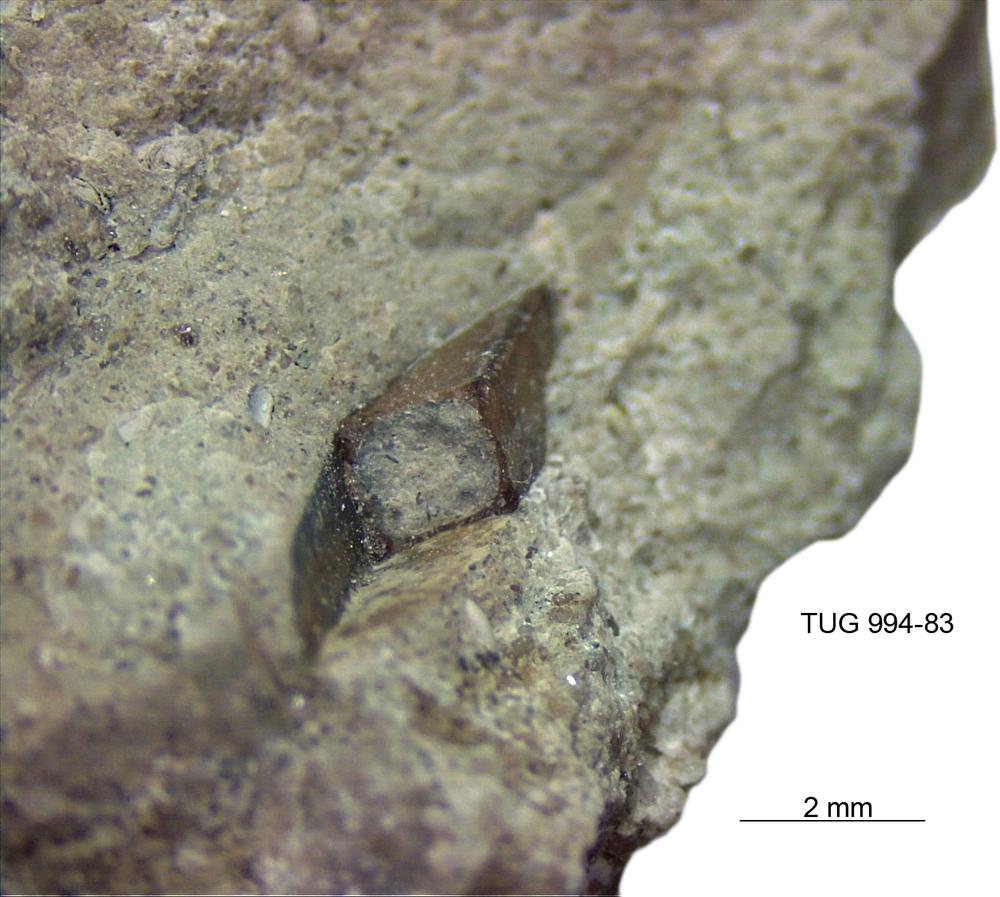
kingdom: Animalia
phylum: Cnidaria
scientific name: Cnidaria
